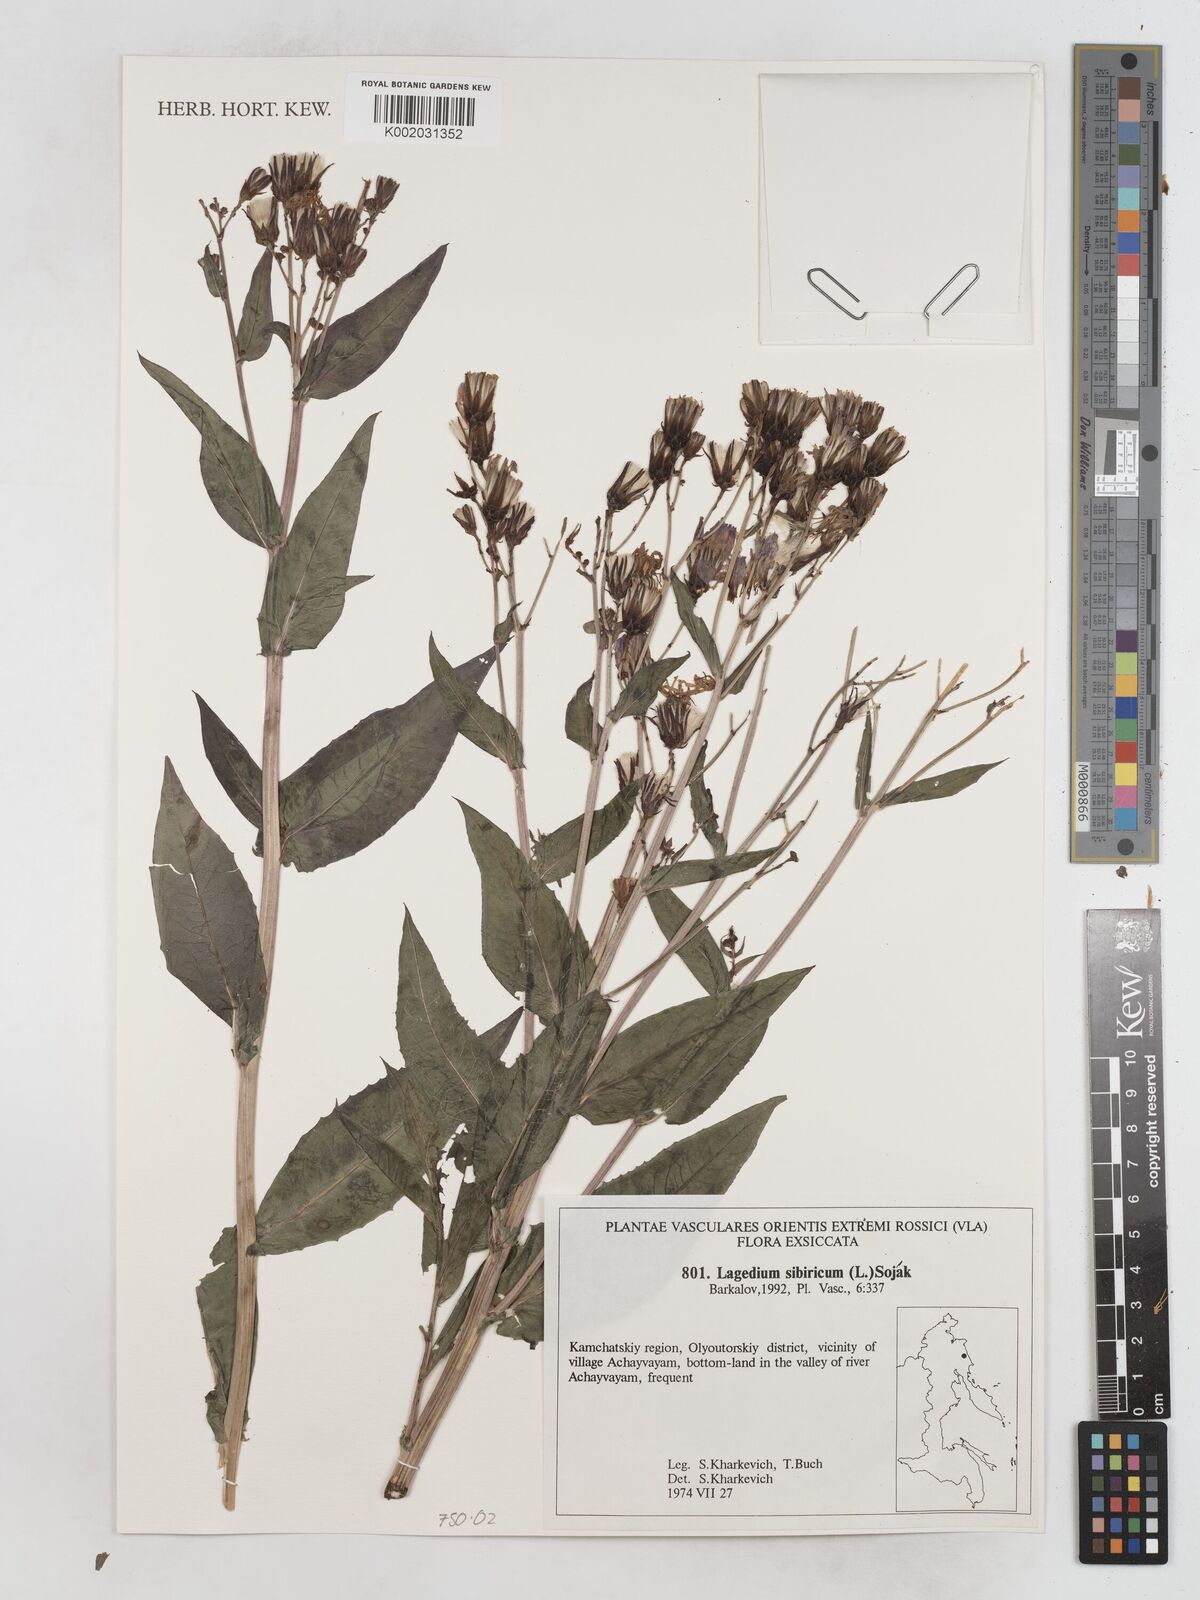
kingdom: Plantae
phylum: Tracheophyta
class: Magnoliopsida
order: Asterales
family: Asteraceae
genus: Lactuca
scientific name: Lactuca sibirica
